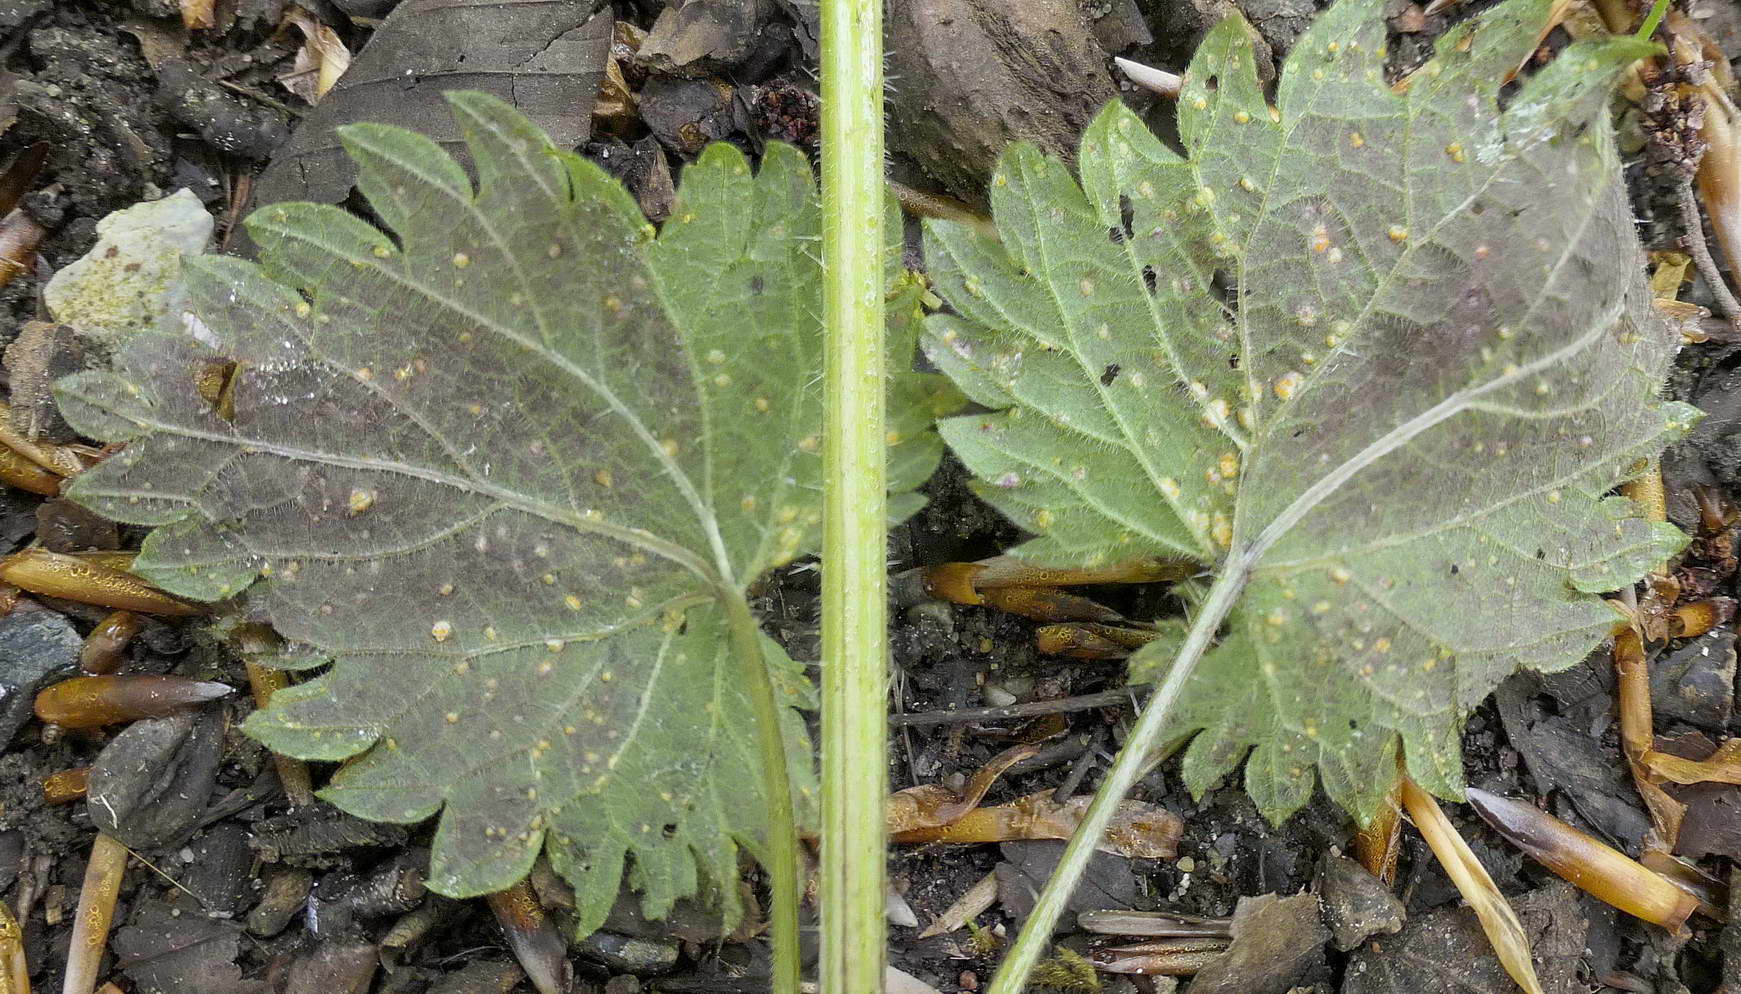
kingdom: Fungi
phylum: Basidiomycota
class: Pucciniomycetes
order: Pucciniales
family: Pucciniaceae
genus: Puccinia
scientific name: Puccinia
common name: tvecellerust
